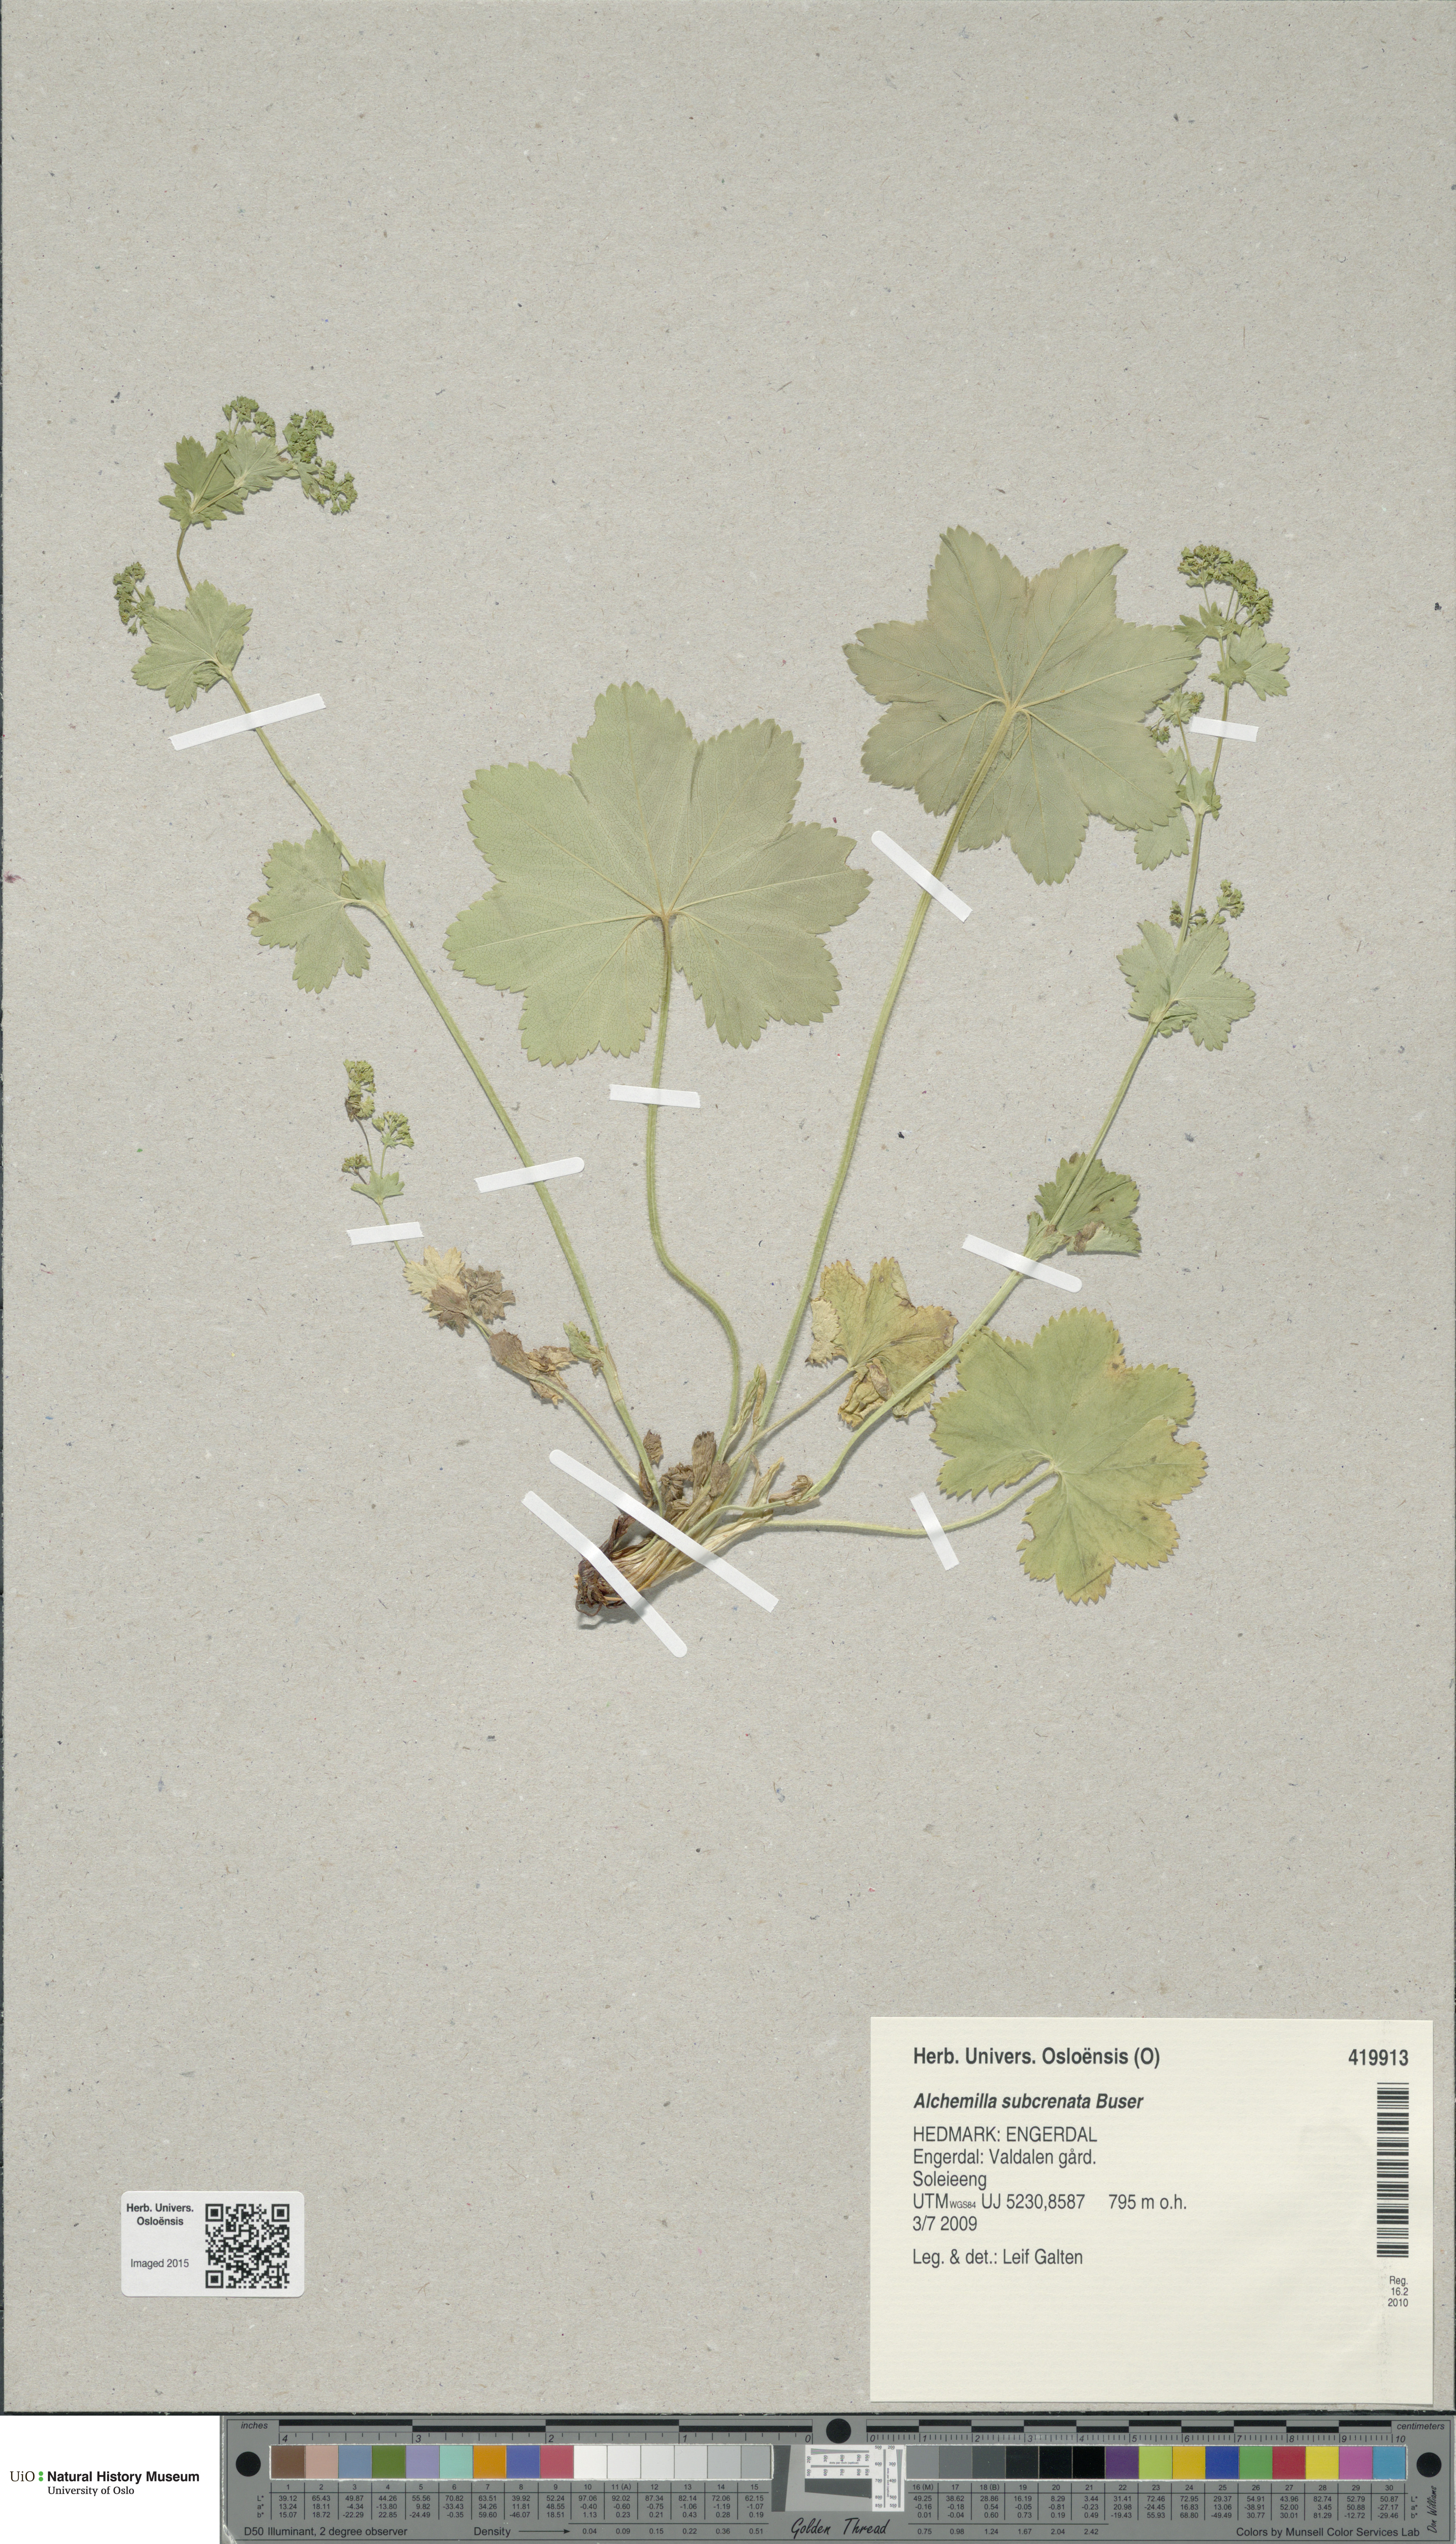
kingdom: Plantae
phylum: Tracheophyta
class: Magnoliopsida
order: Rosales
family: Rosaceae
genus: Alchemilla
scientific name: Alchemilla subcrenata
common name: Broadtooth lady's mantle
